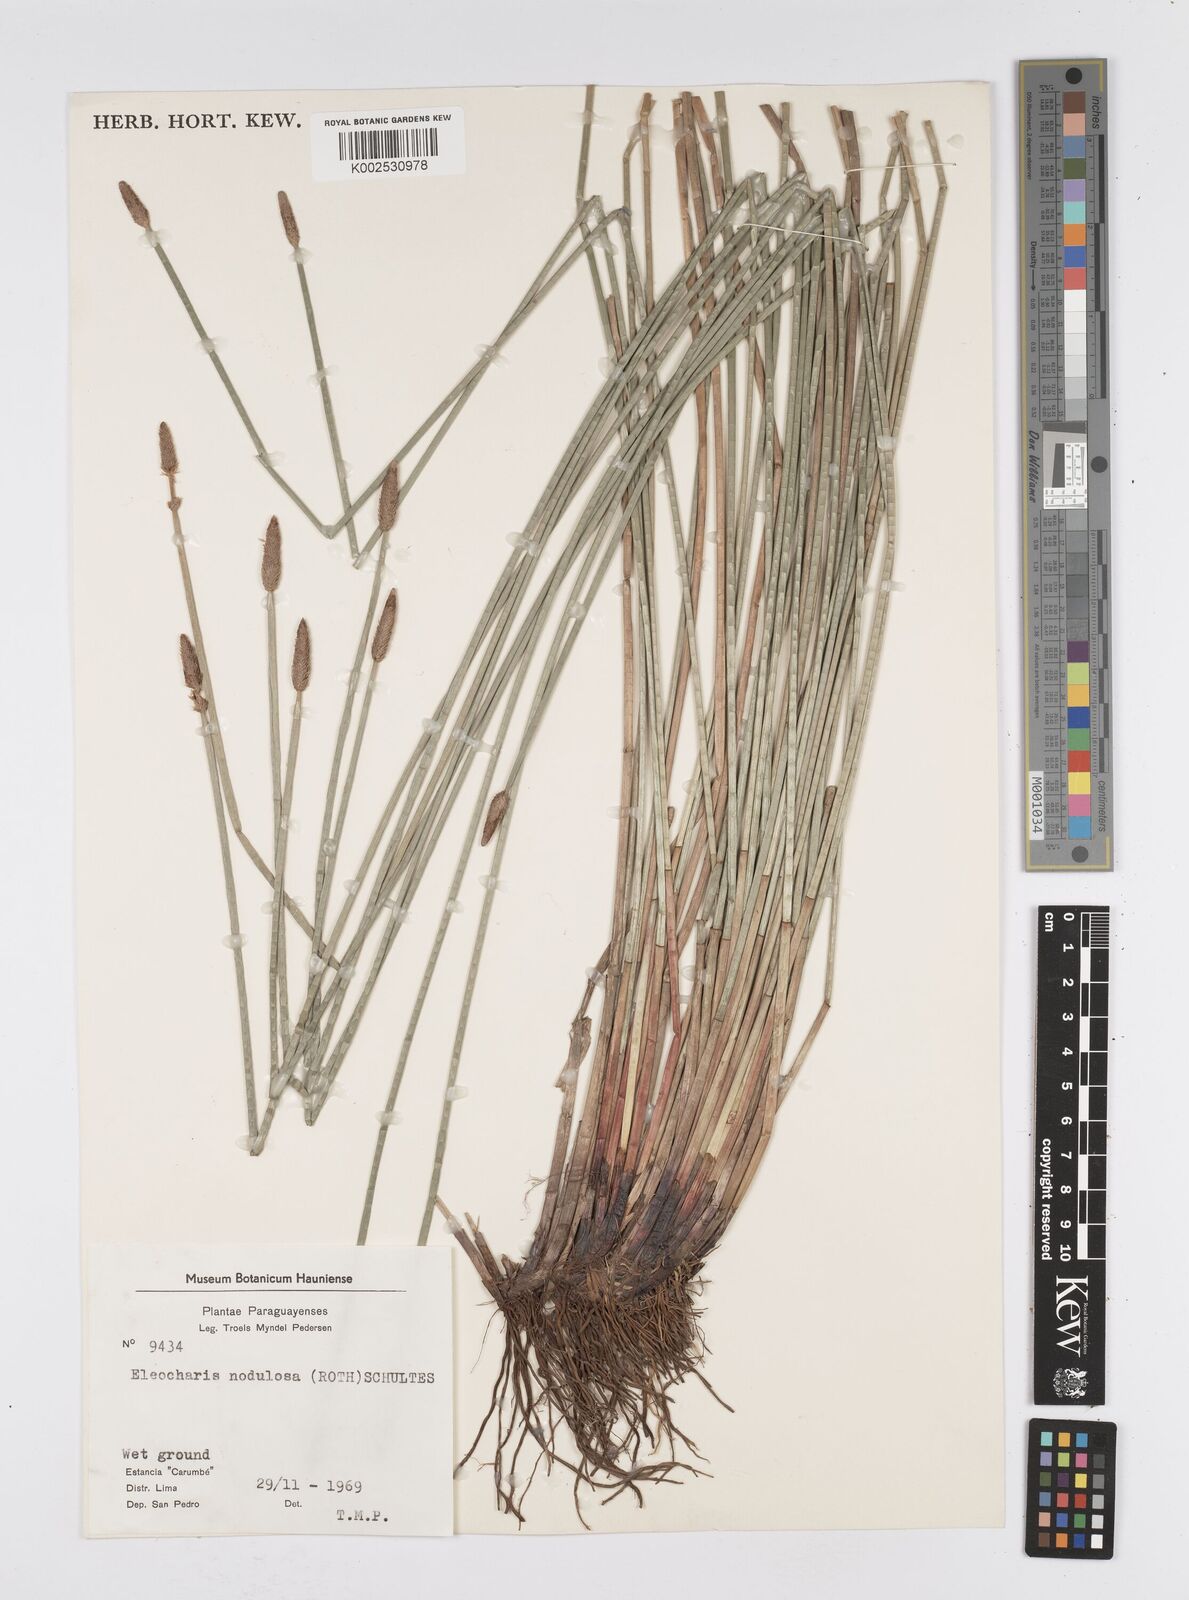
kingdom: Plantae
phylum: Tracheophyta
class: Liliopsida
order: Poales
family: Cyperaceae
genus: Eleocharis
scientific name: Eleocharis montana
